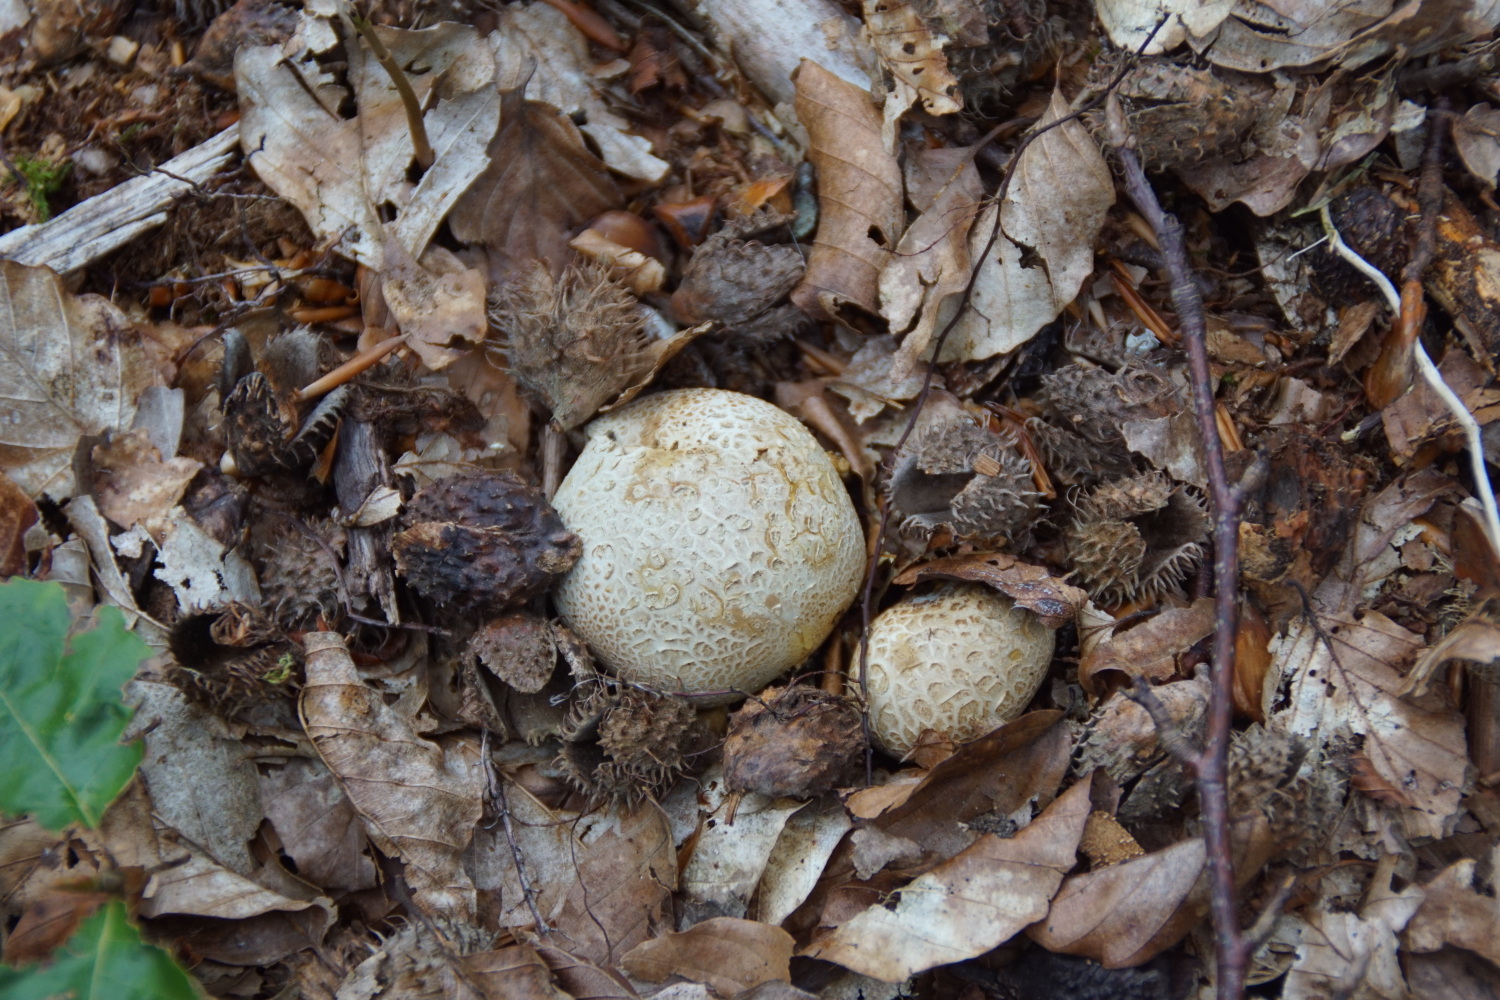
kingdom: Fungi
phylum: Basidiomycota
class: Agaricomycetes
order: Boletales
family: Sclerodermataceae
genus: Scleroderma
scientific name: Scleroderma citrinum
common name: almindelig bruskbold
